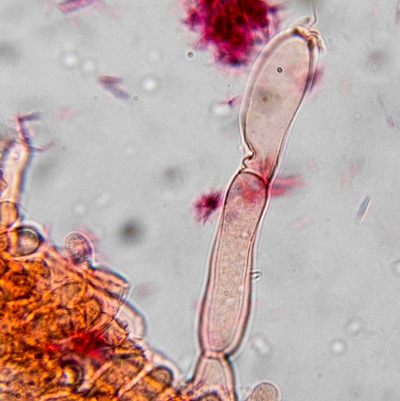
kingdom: Fungi
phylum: Basidiomycota
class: Agaricomycetes
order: Agaricales
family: Hygrophoraceae
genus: Arrhenia
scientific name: Arrhenia retiruga
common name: lille fontænehat
